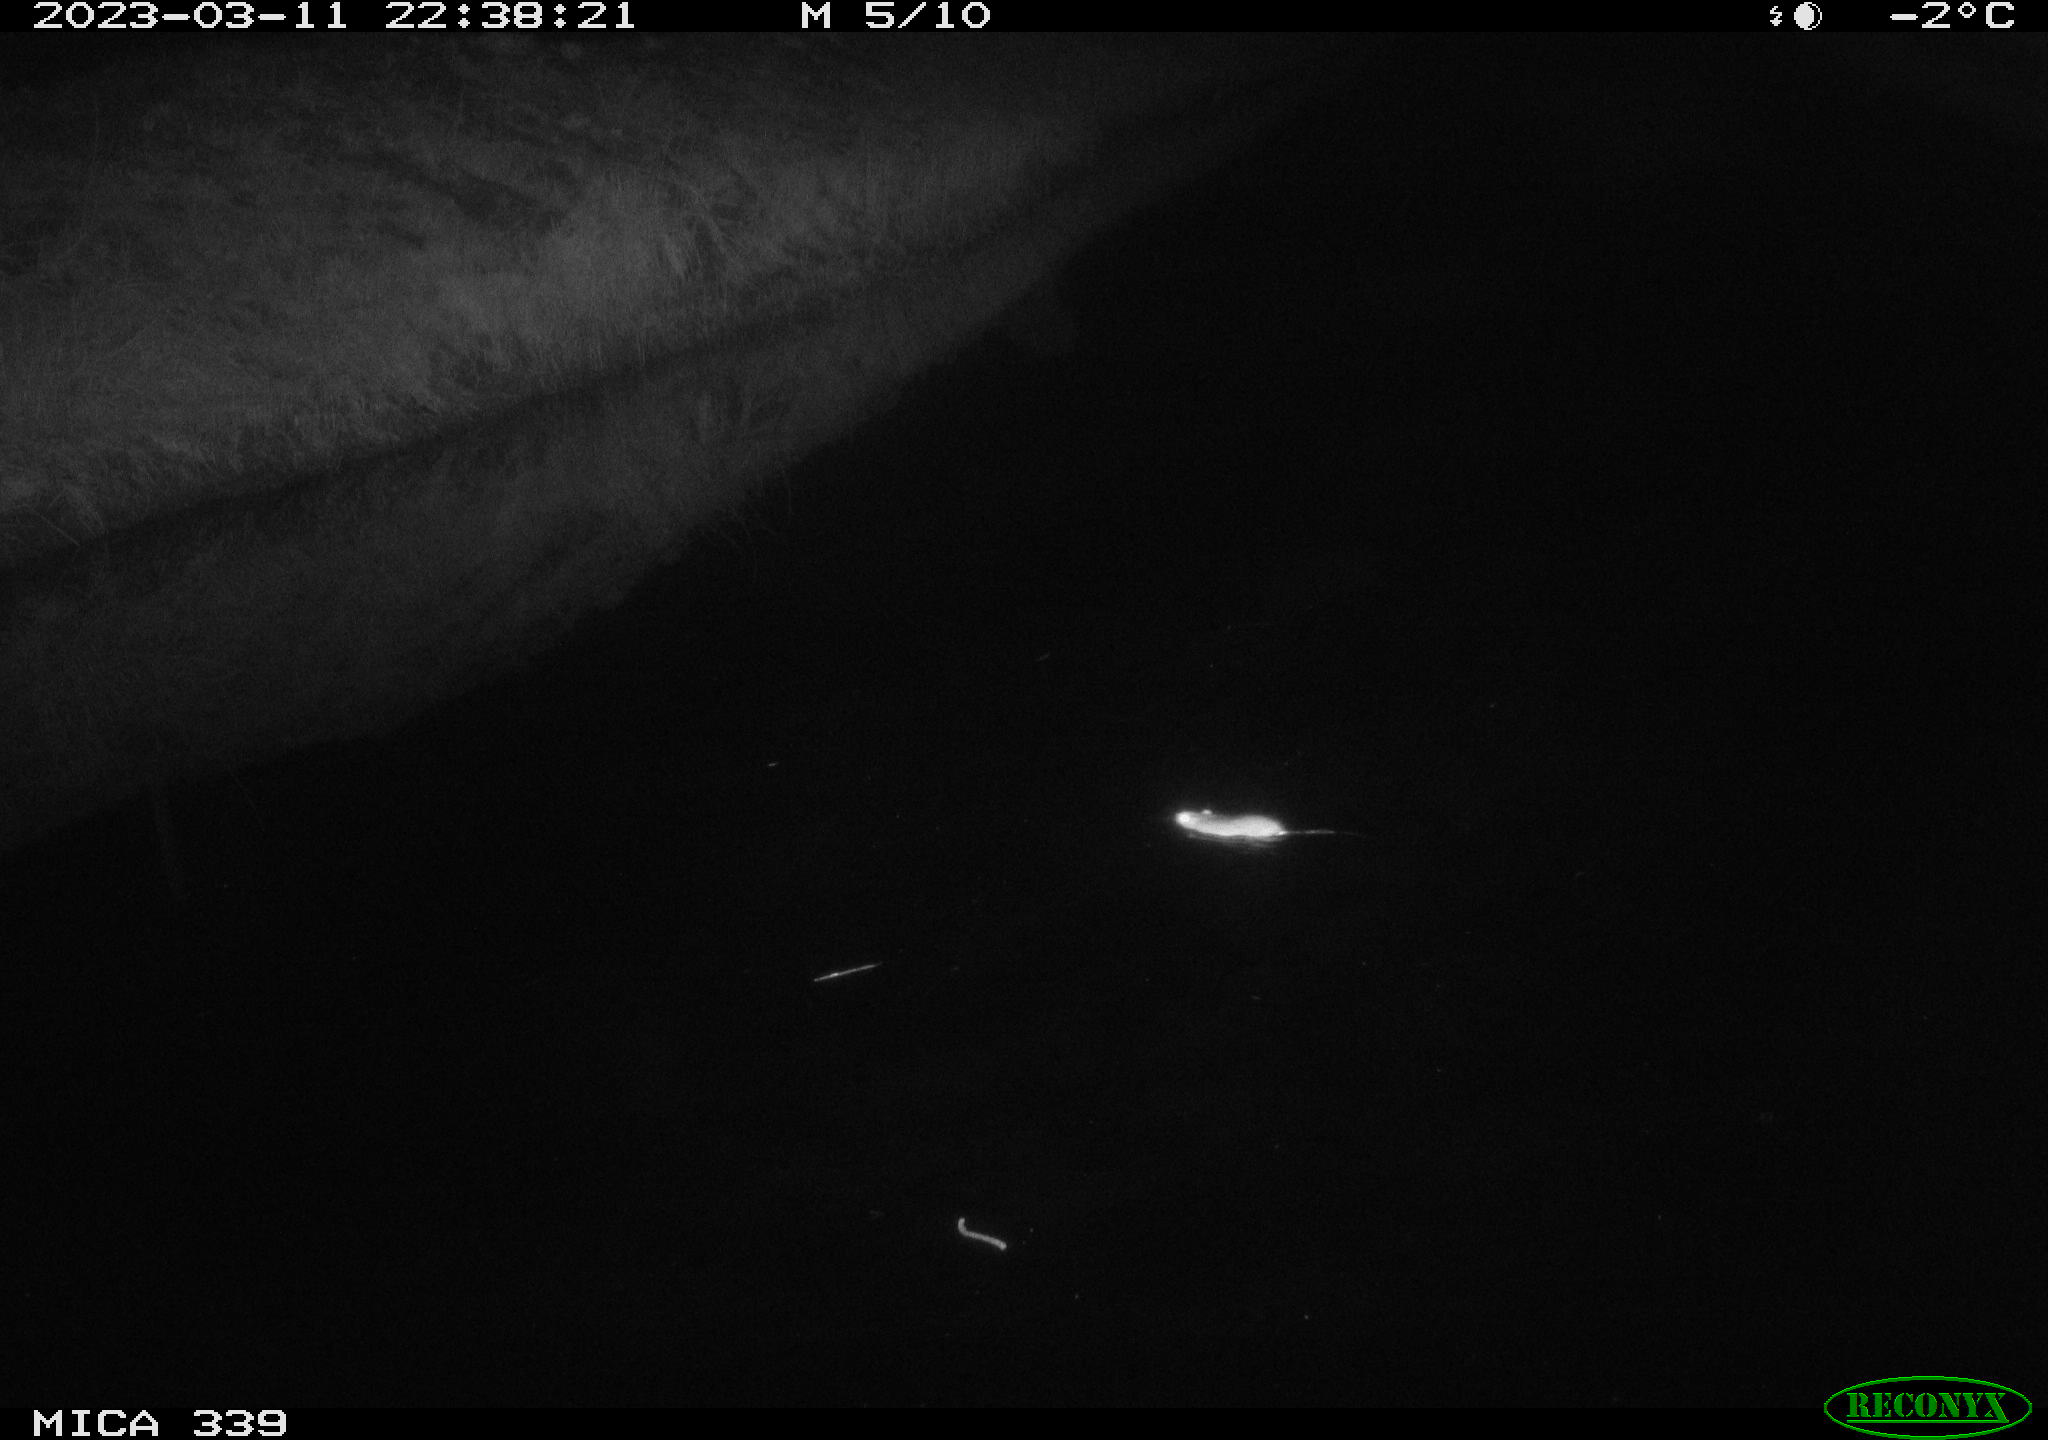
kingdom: Animalia
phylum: Chordata
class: Mammalia
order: Rodentia
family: Muridae
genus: Rattus
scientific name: Rattus norvegicus
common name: Brown rat
